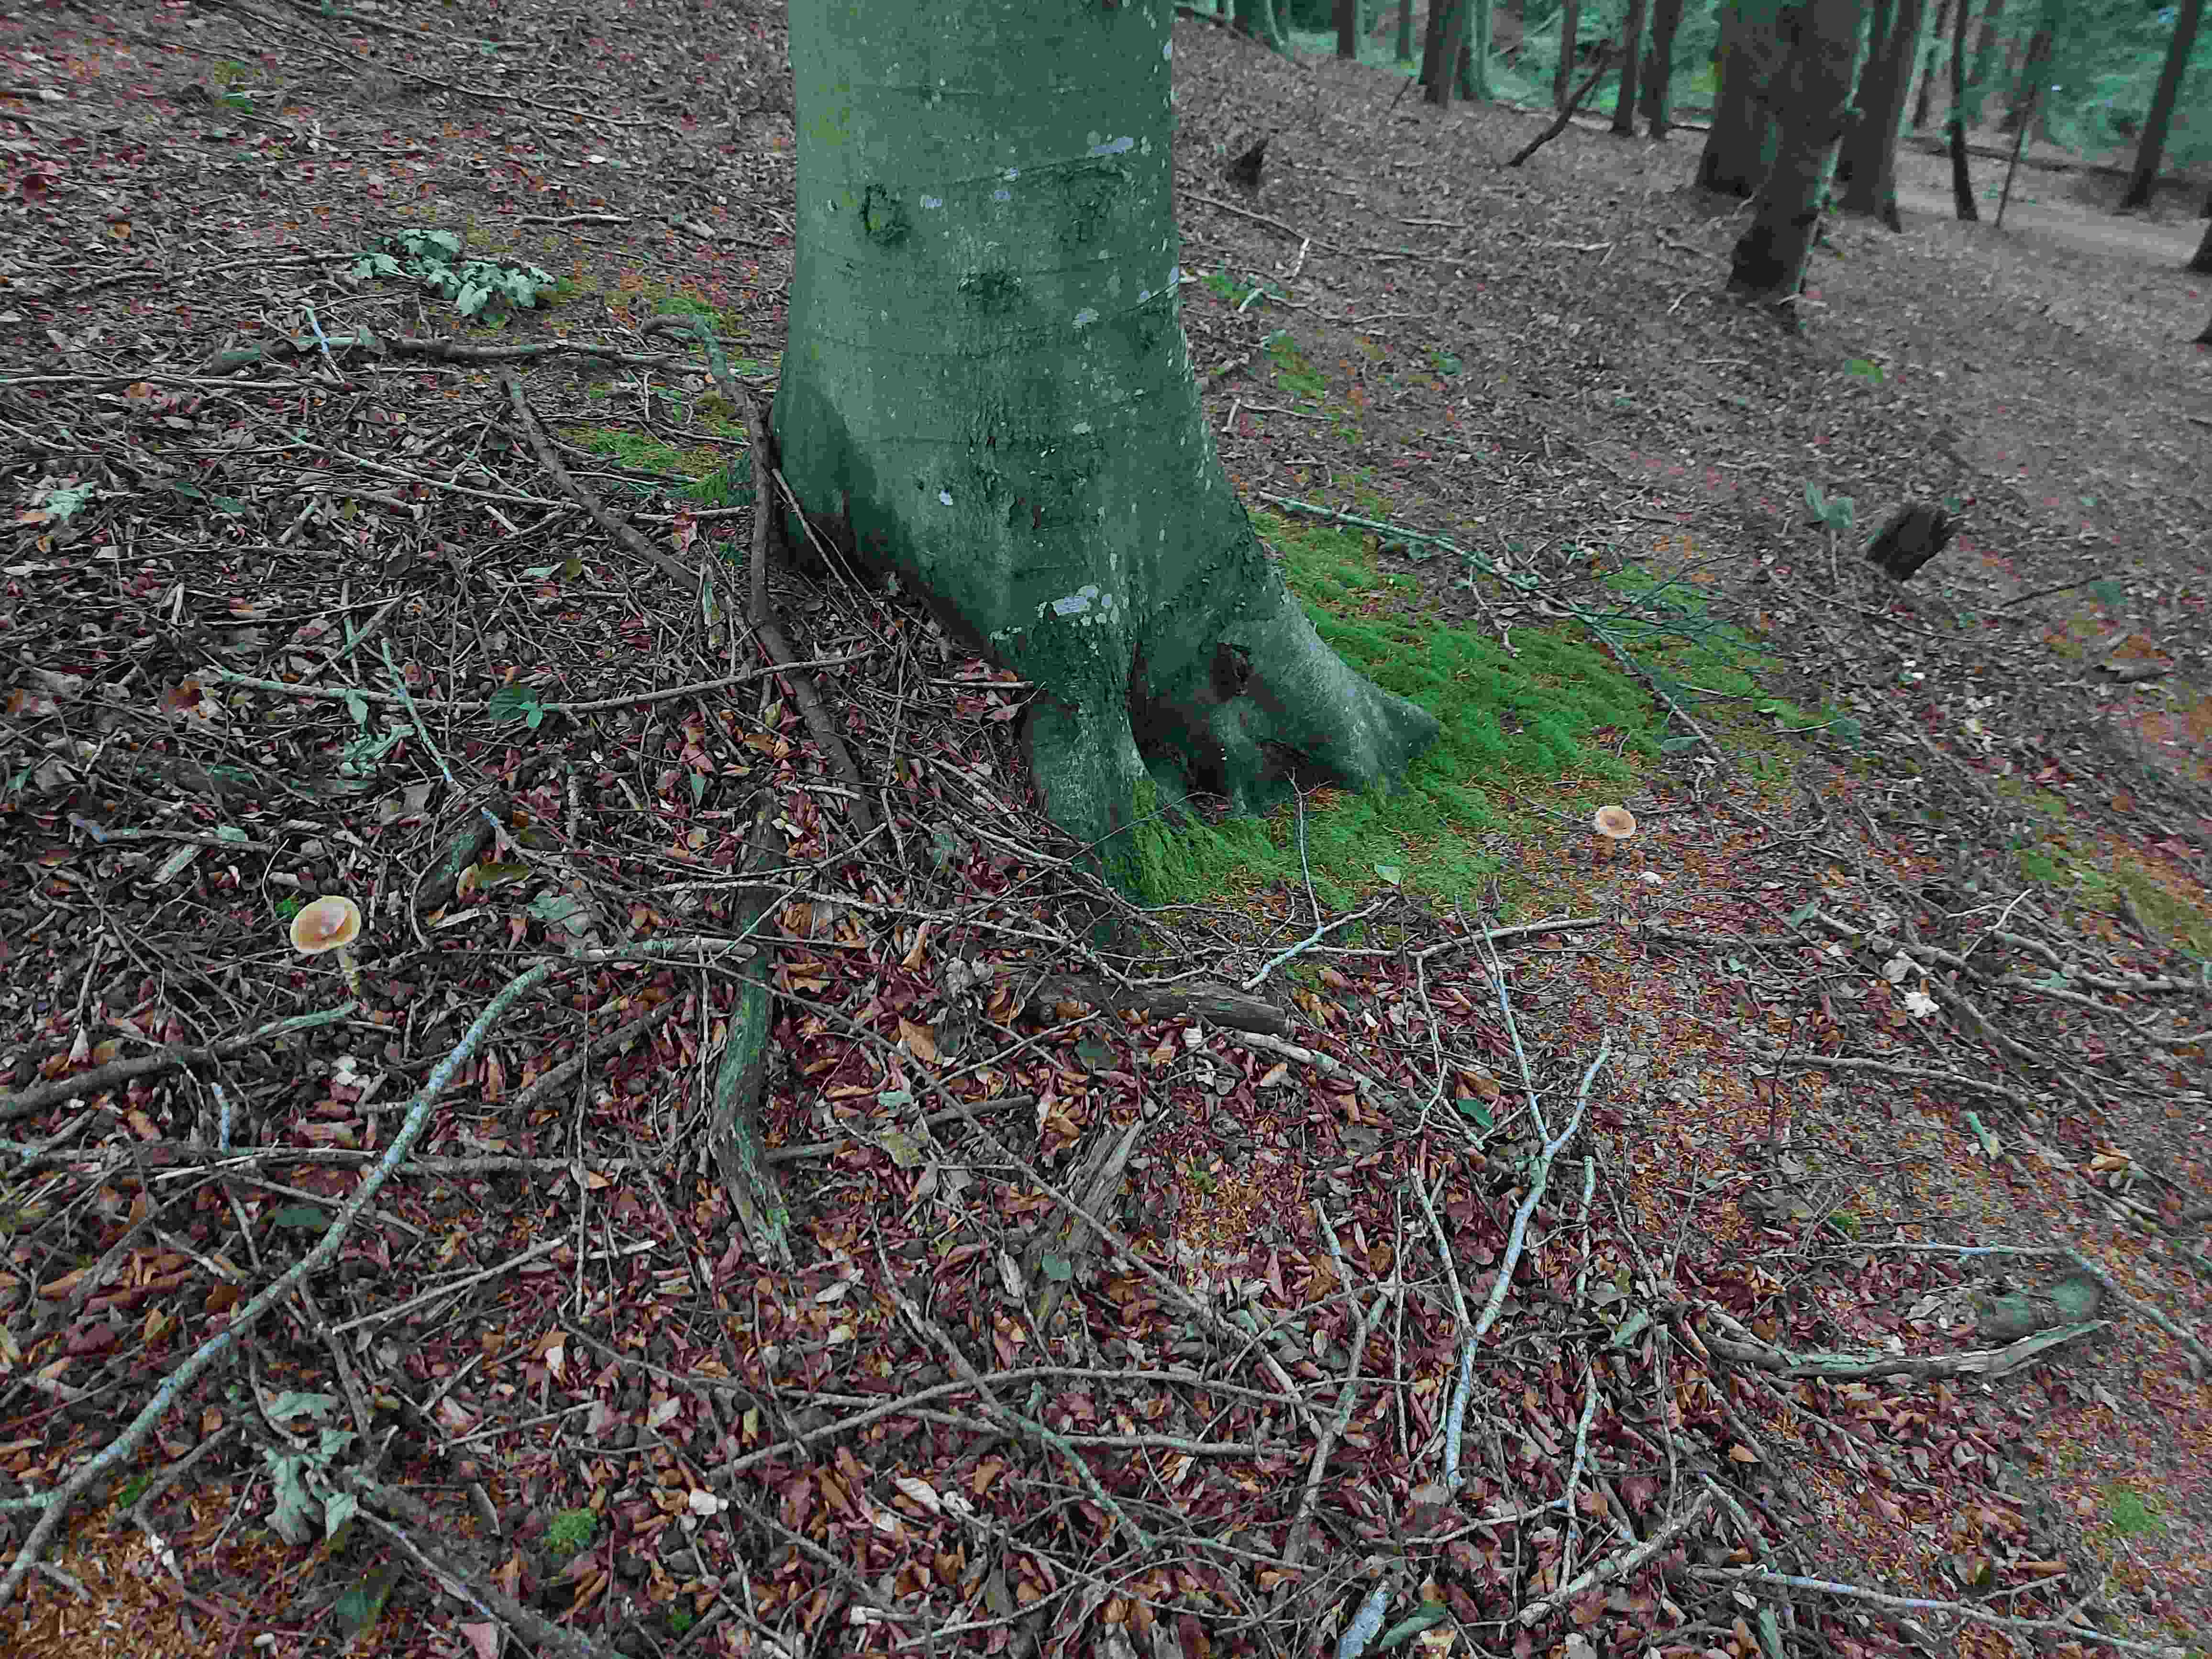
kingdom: Fungi
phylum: Basidiomycota
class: Agaricomycetes
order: Agaricales
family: Amanitaceae
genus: Amanita
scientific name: Amanita fulva
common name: brun kam-fluesvamp
